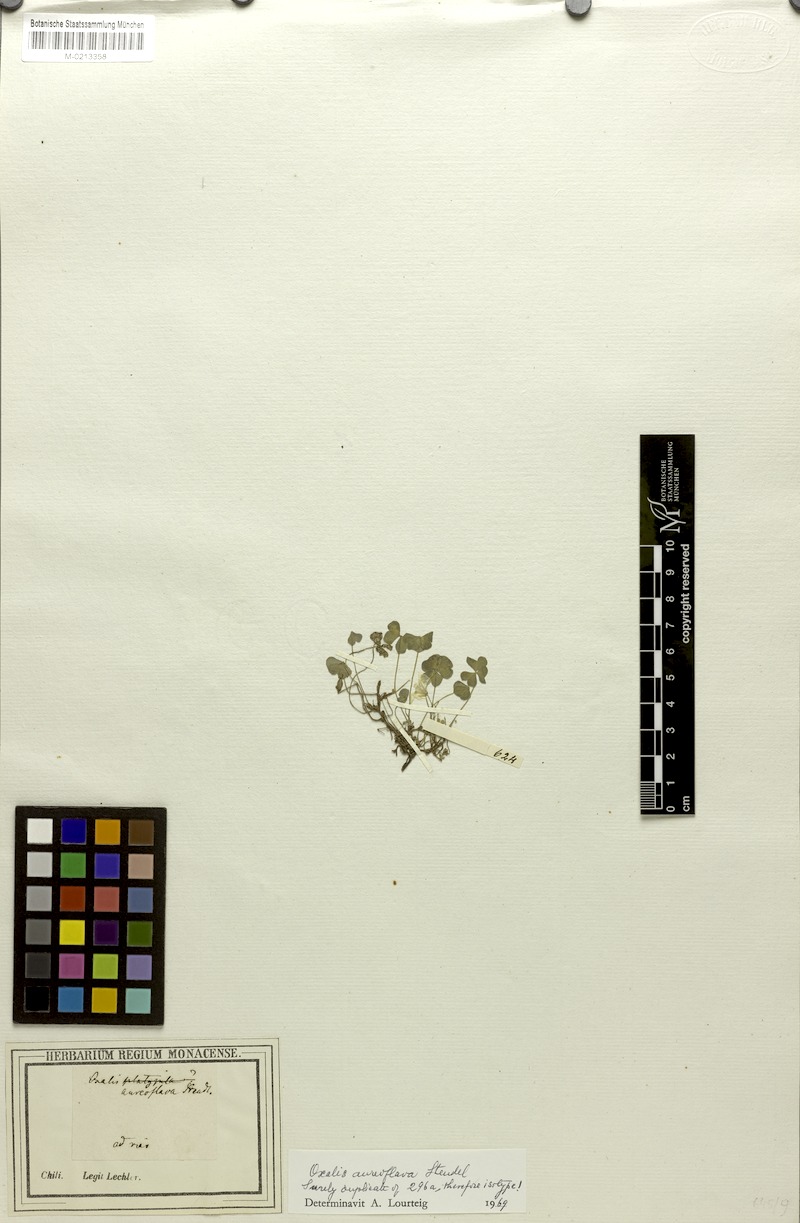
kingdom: Plantae
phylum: Tracheophyta
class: Magnoliopsida
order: Oxalidales
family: Oxalidaceae
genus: Oxalis
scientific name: Oxalis aureoflava
